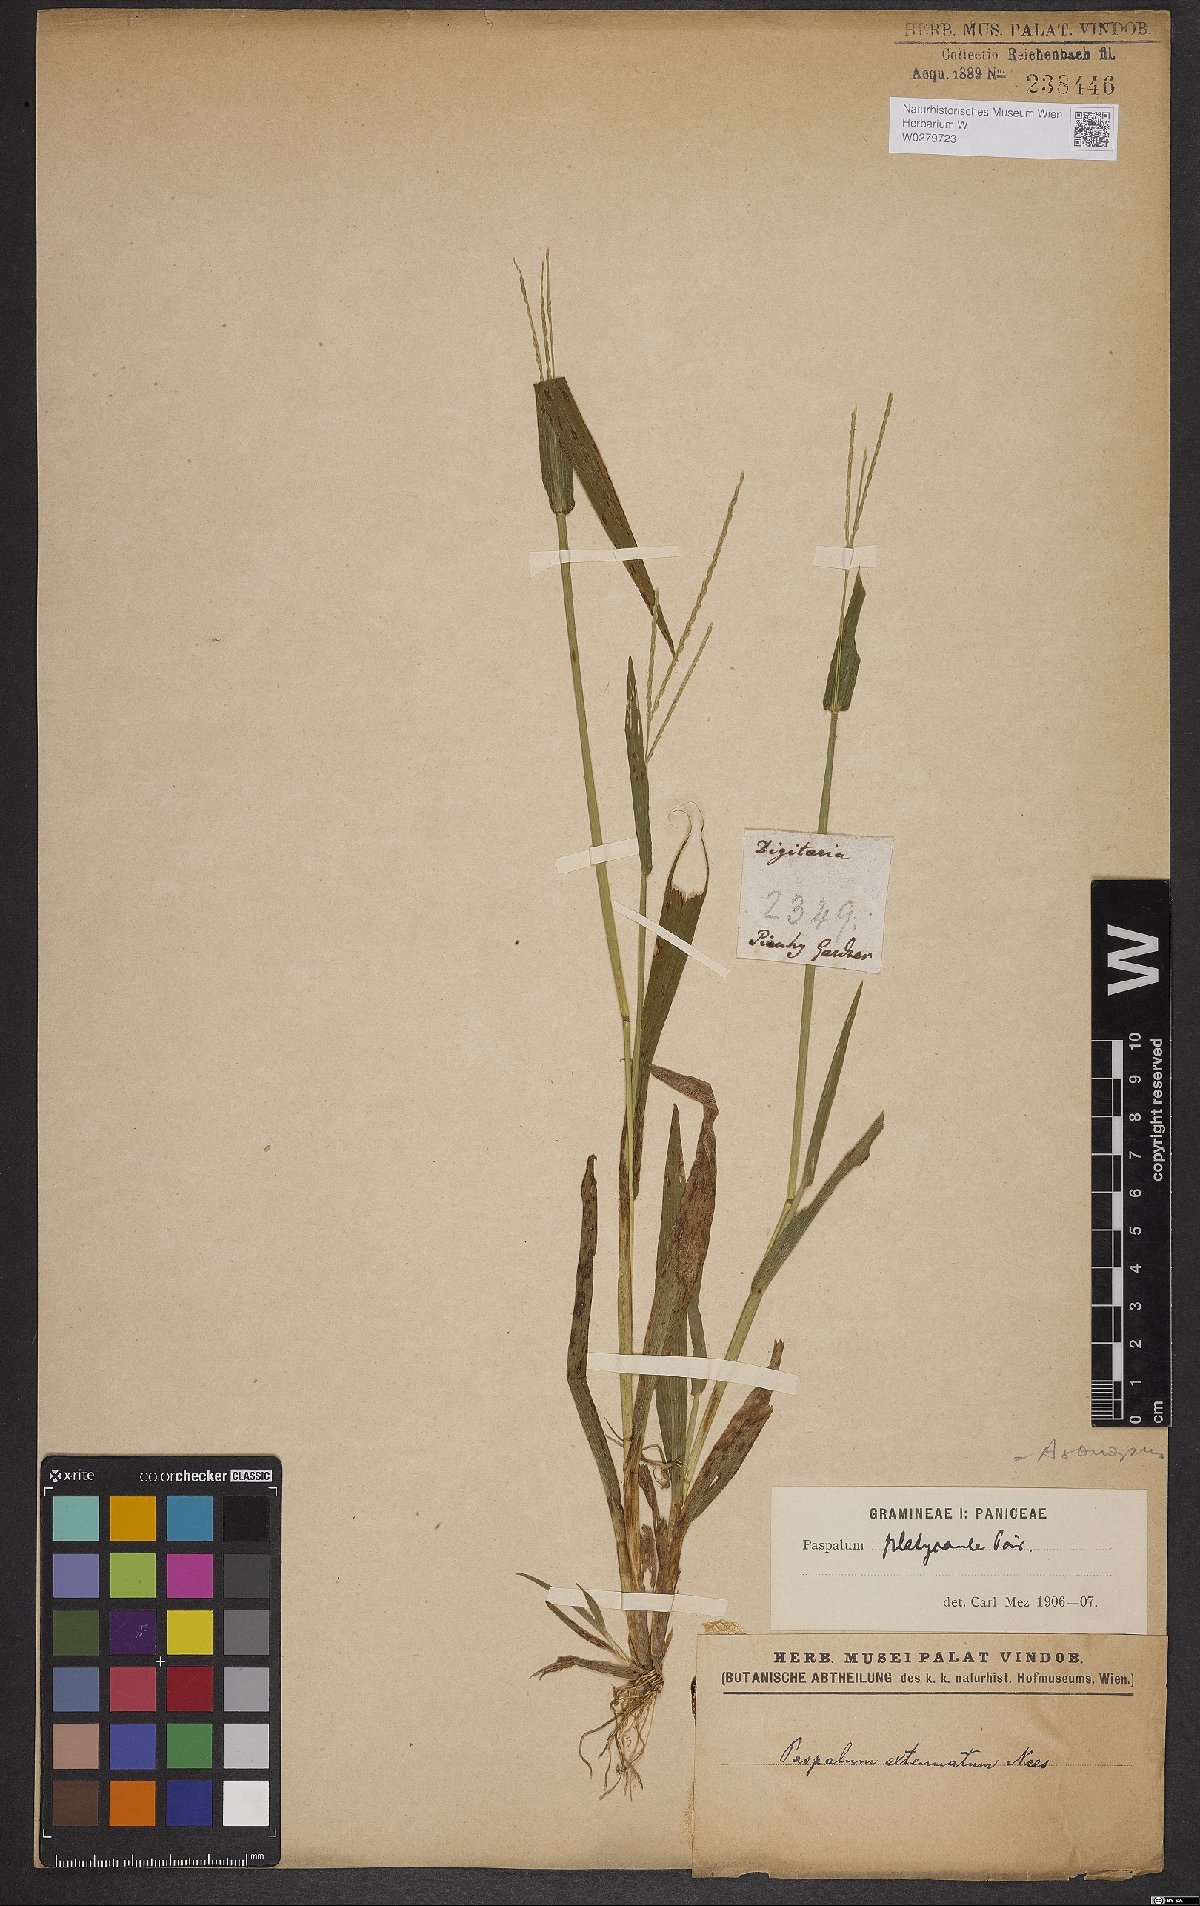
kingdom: Plantae
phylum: Tracheophyta
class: Liliopsida
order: Poales
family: Poaceae
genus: Axonopus
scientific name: Axonopus compressus
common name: American carpet grass
